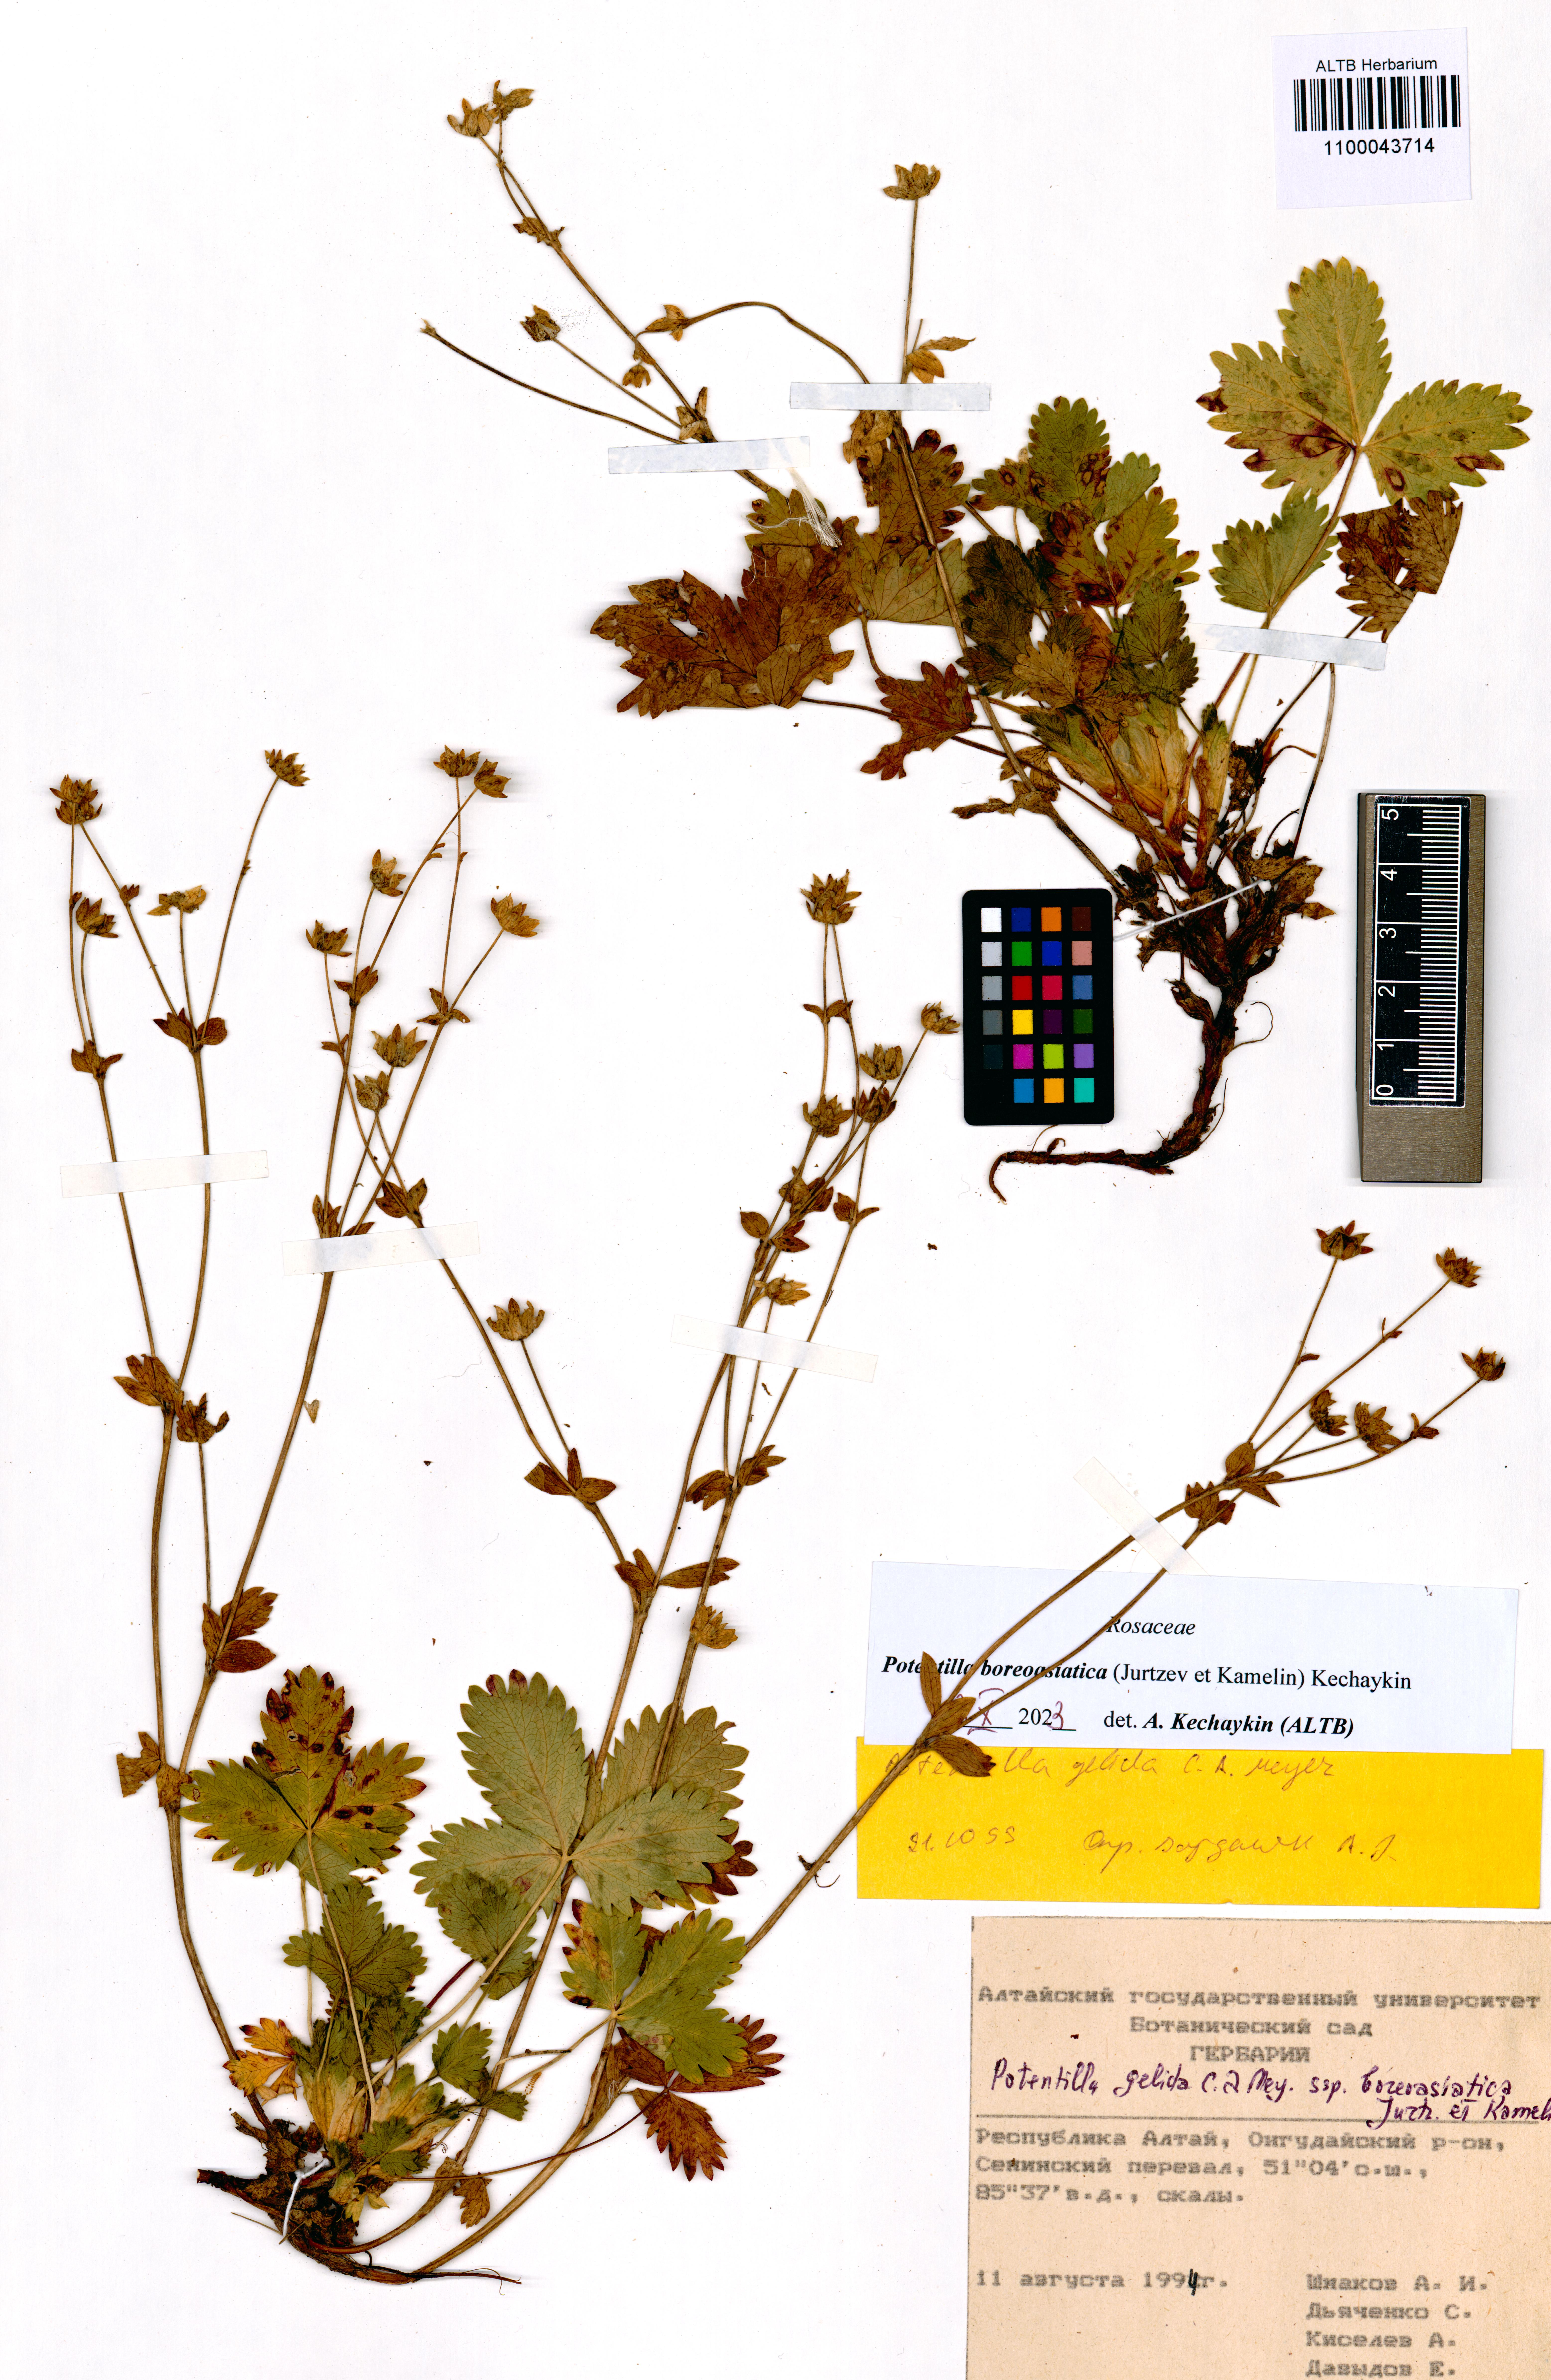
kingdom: Plantae
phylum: Tracheophyta
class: Magnoliopsida
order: Rosales
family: Rosaceae
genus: Potentilla
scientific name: Potentilla
